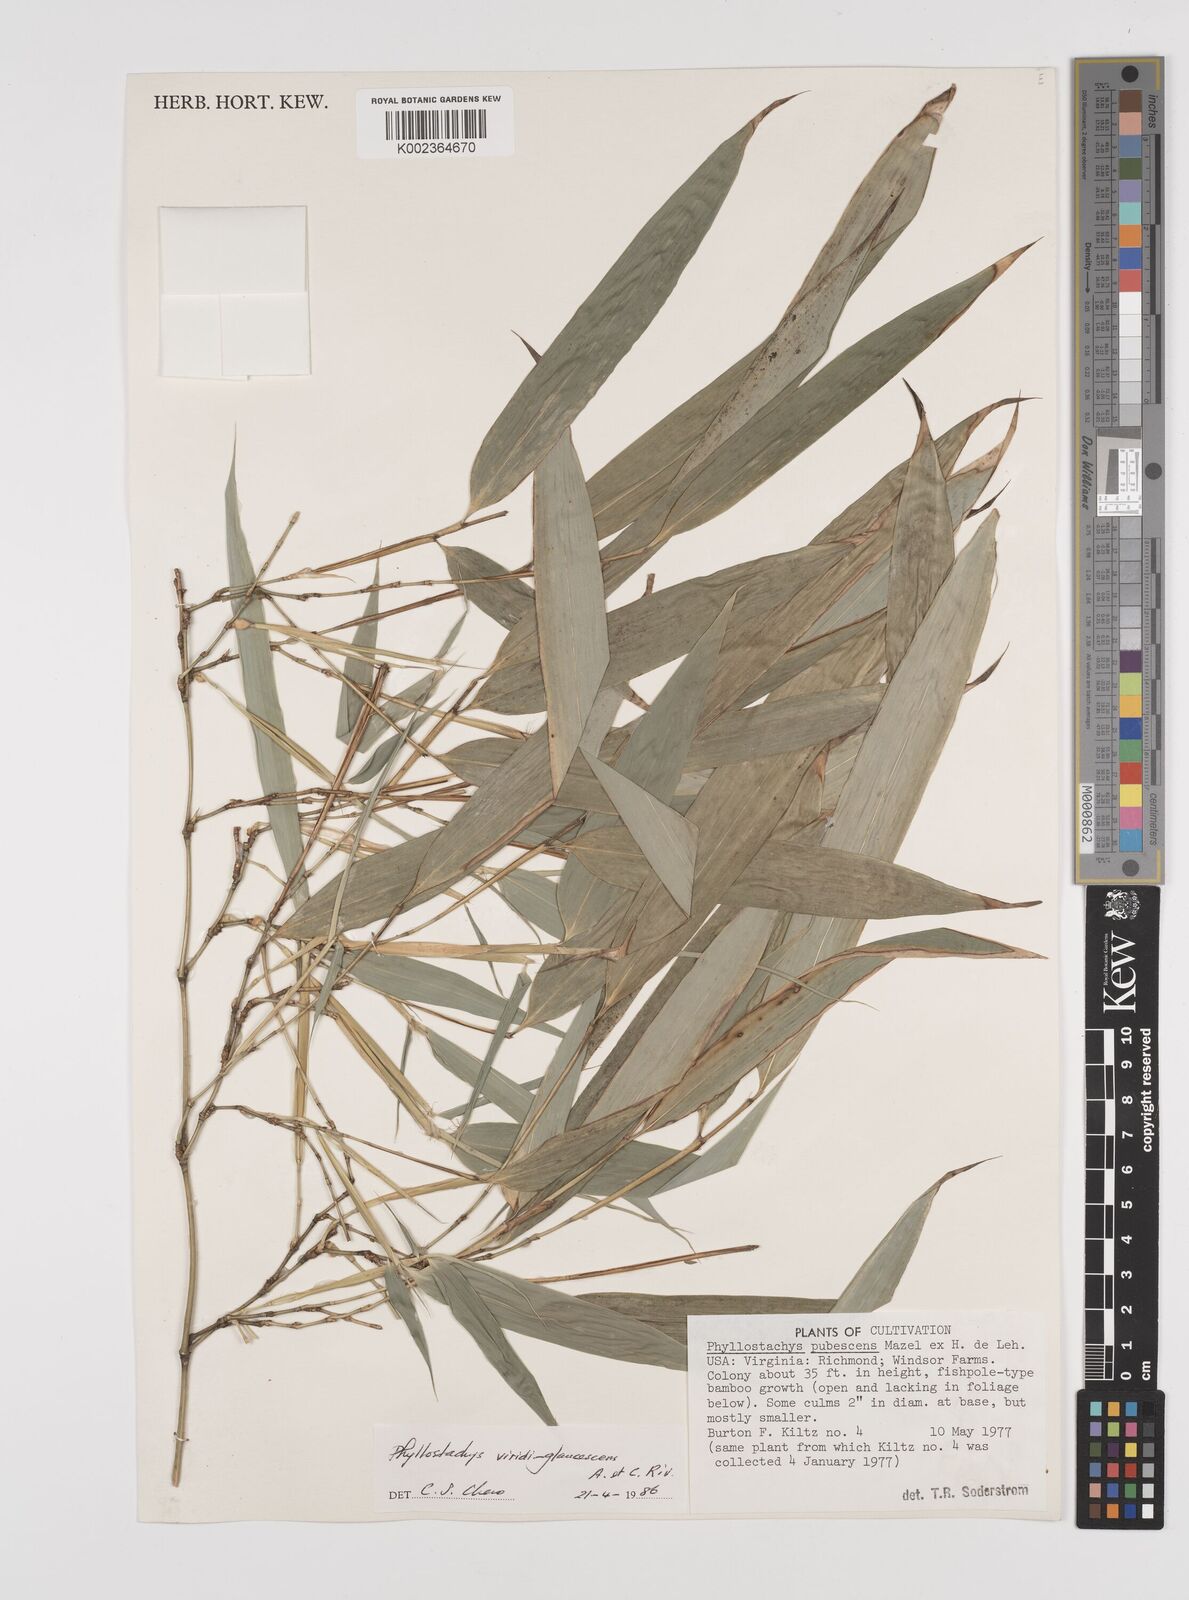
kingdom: Plantae
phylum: Tracheophyta
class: Liliopsida
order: Poales
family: Poaceae
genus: Phyllostachys
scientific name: Phyllostachys viridiglaucescens
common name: Greenwax golden bamboo
